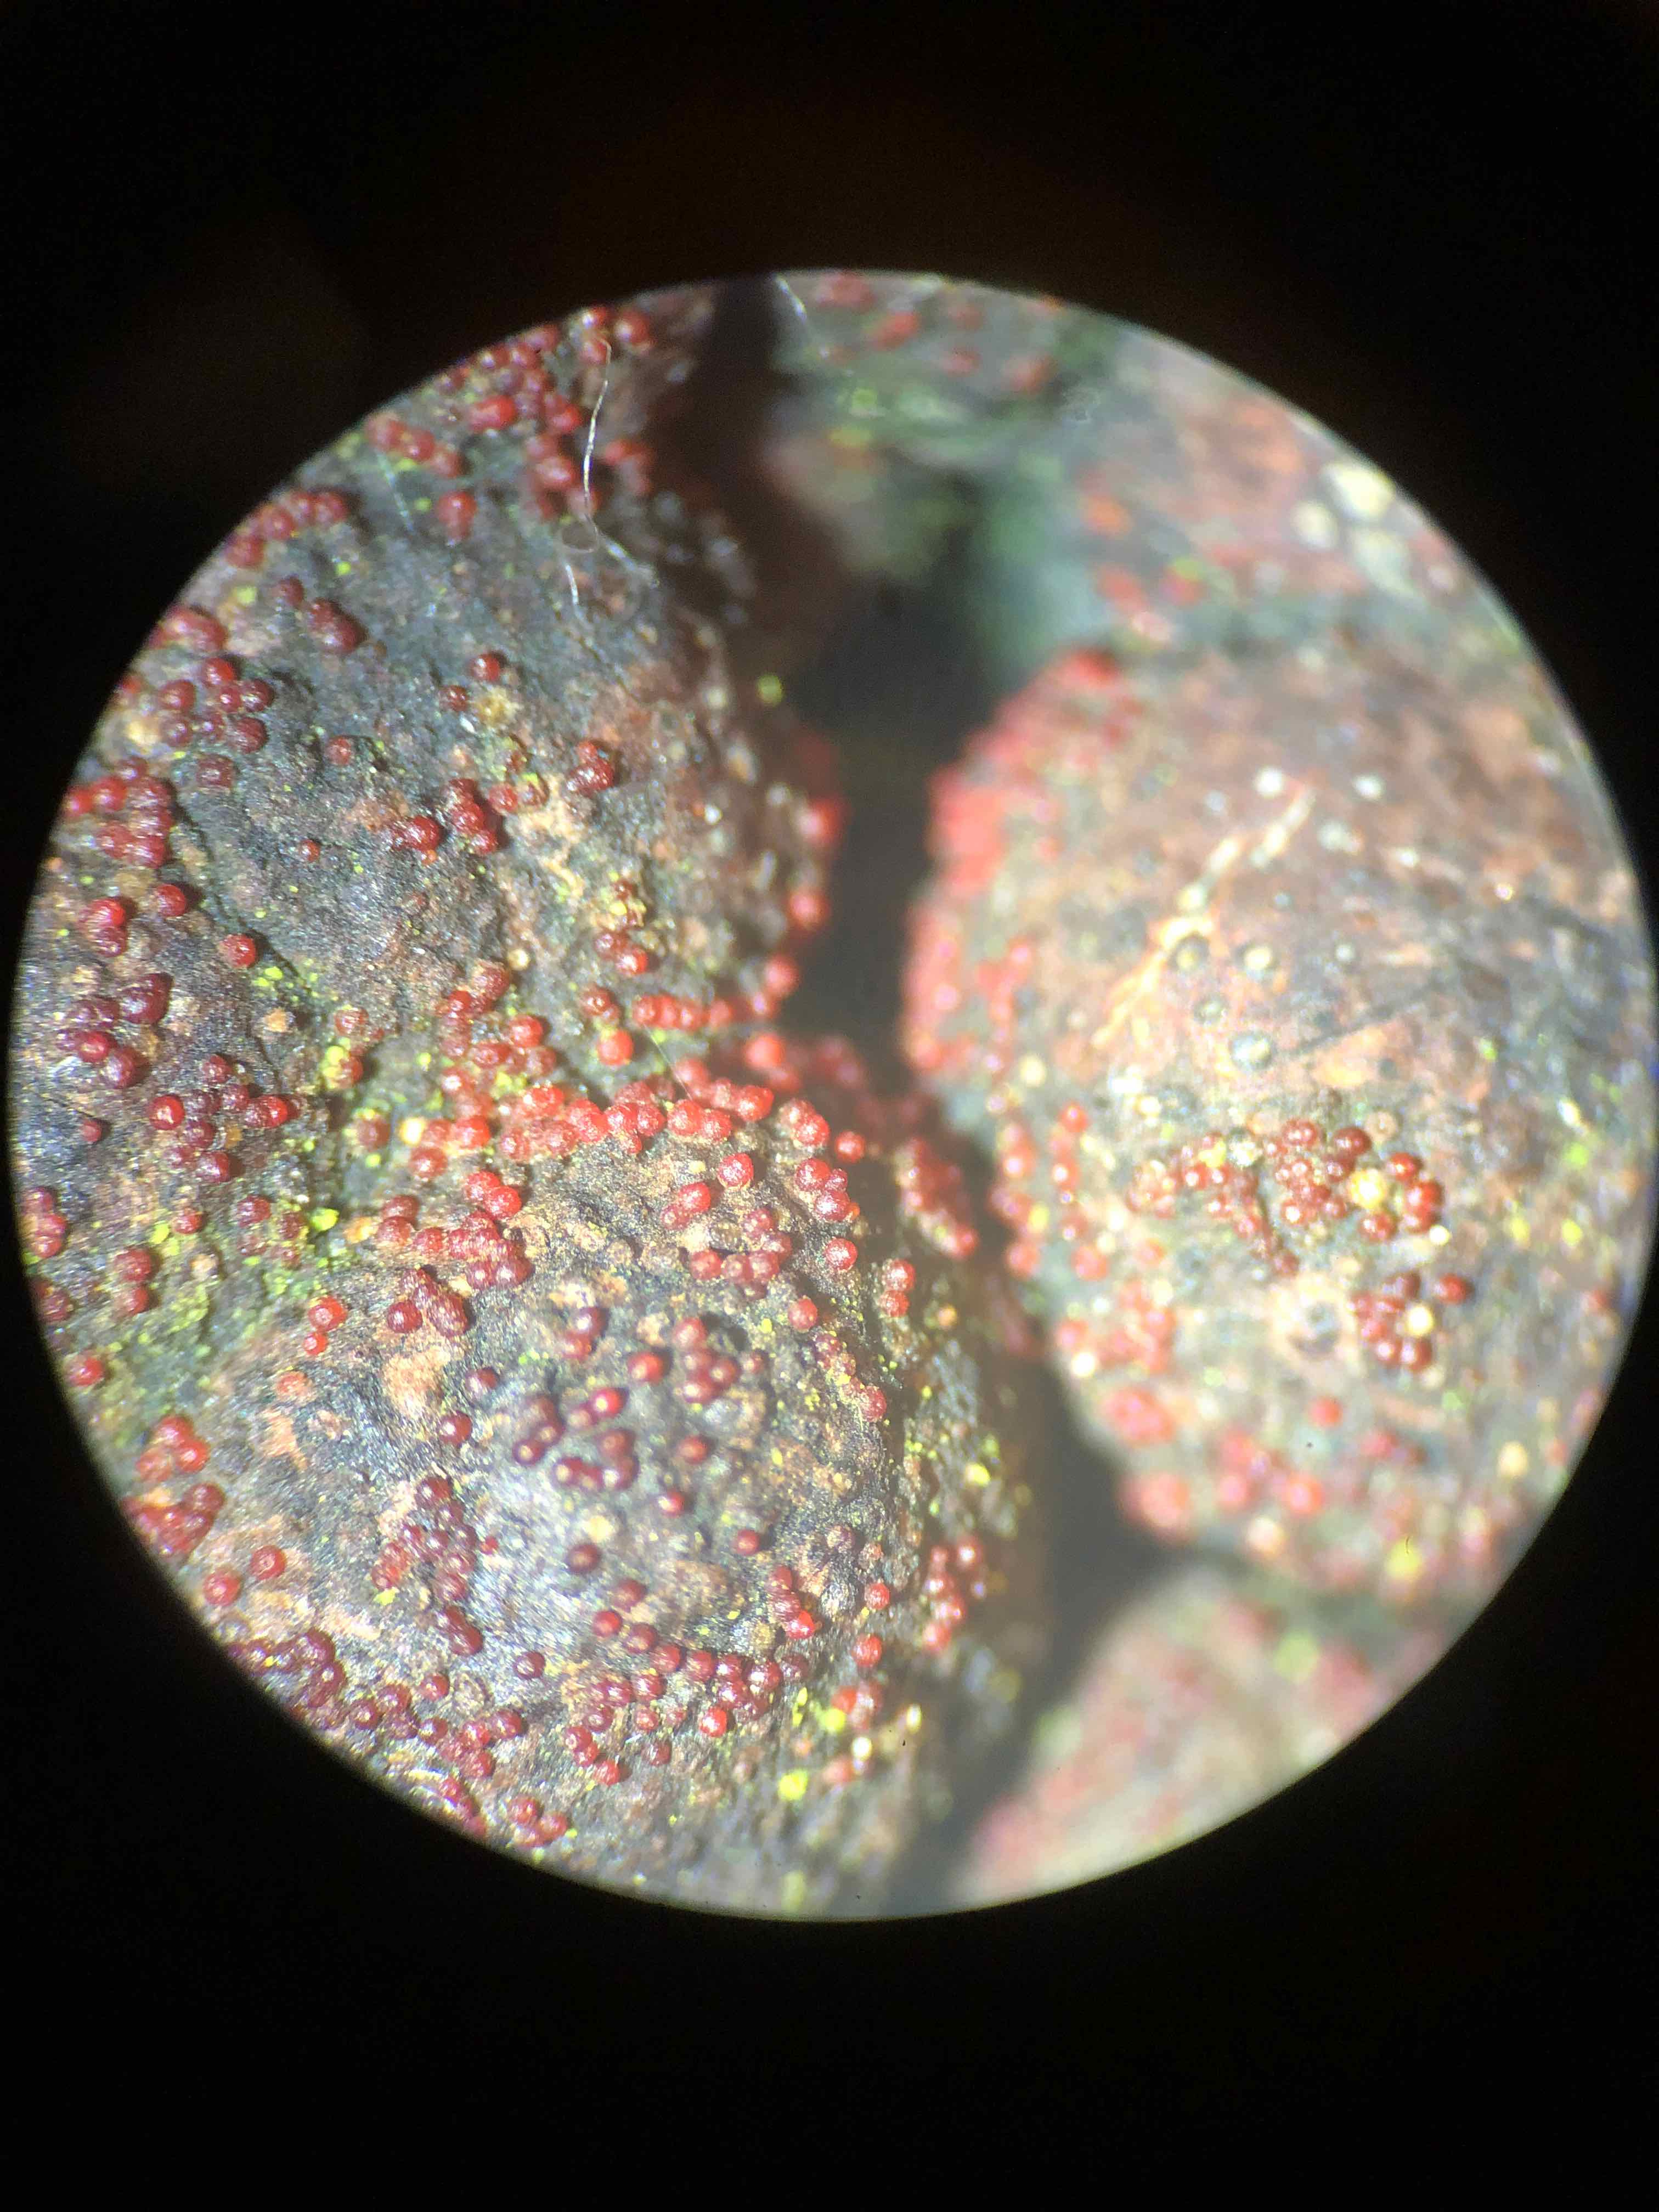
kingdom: Fungi
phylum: Ascomycota
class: Sordariomycetes
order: Hypocreales
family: Nectriaceae
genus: Cosmospora
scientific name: Cosmospora arxii
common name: kuljordbær-cinnobersvamp
